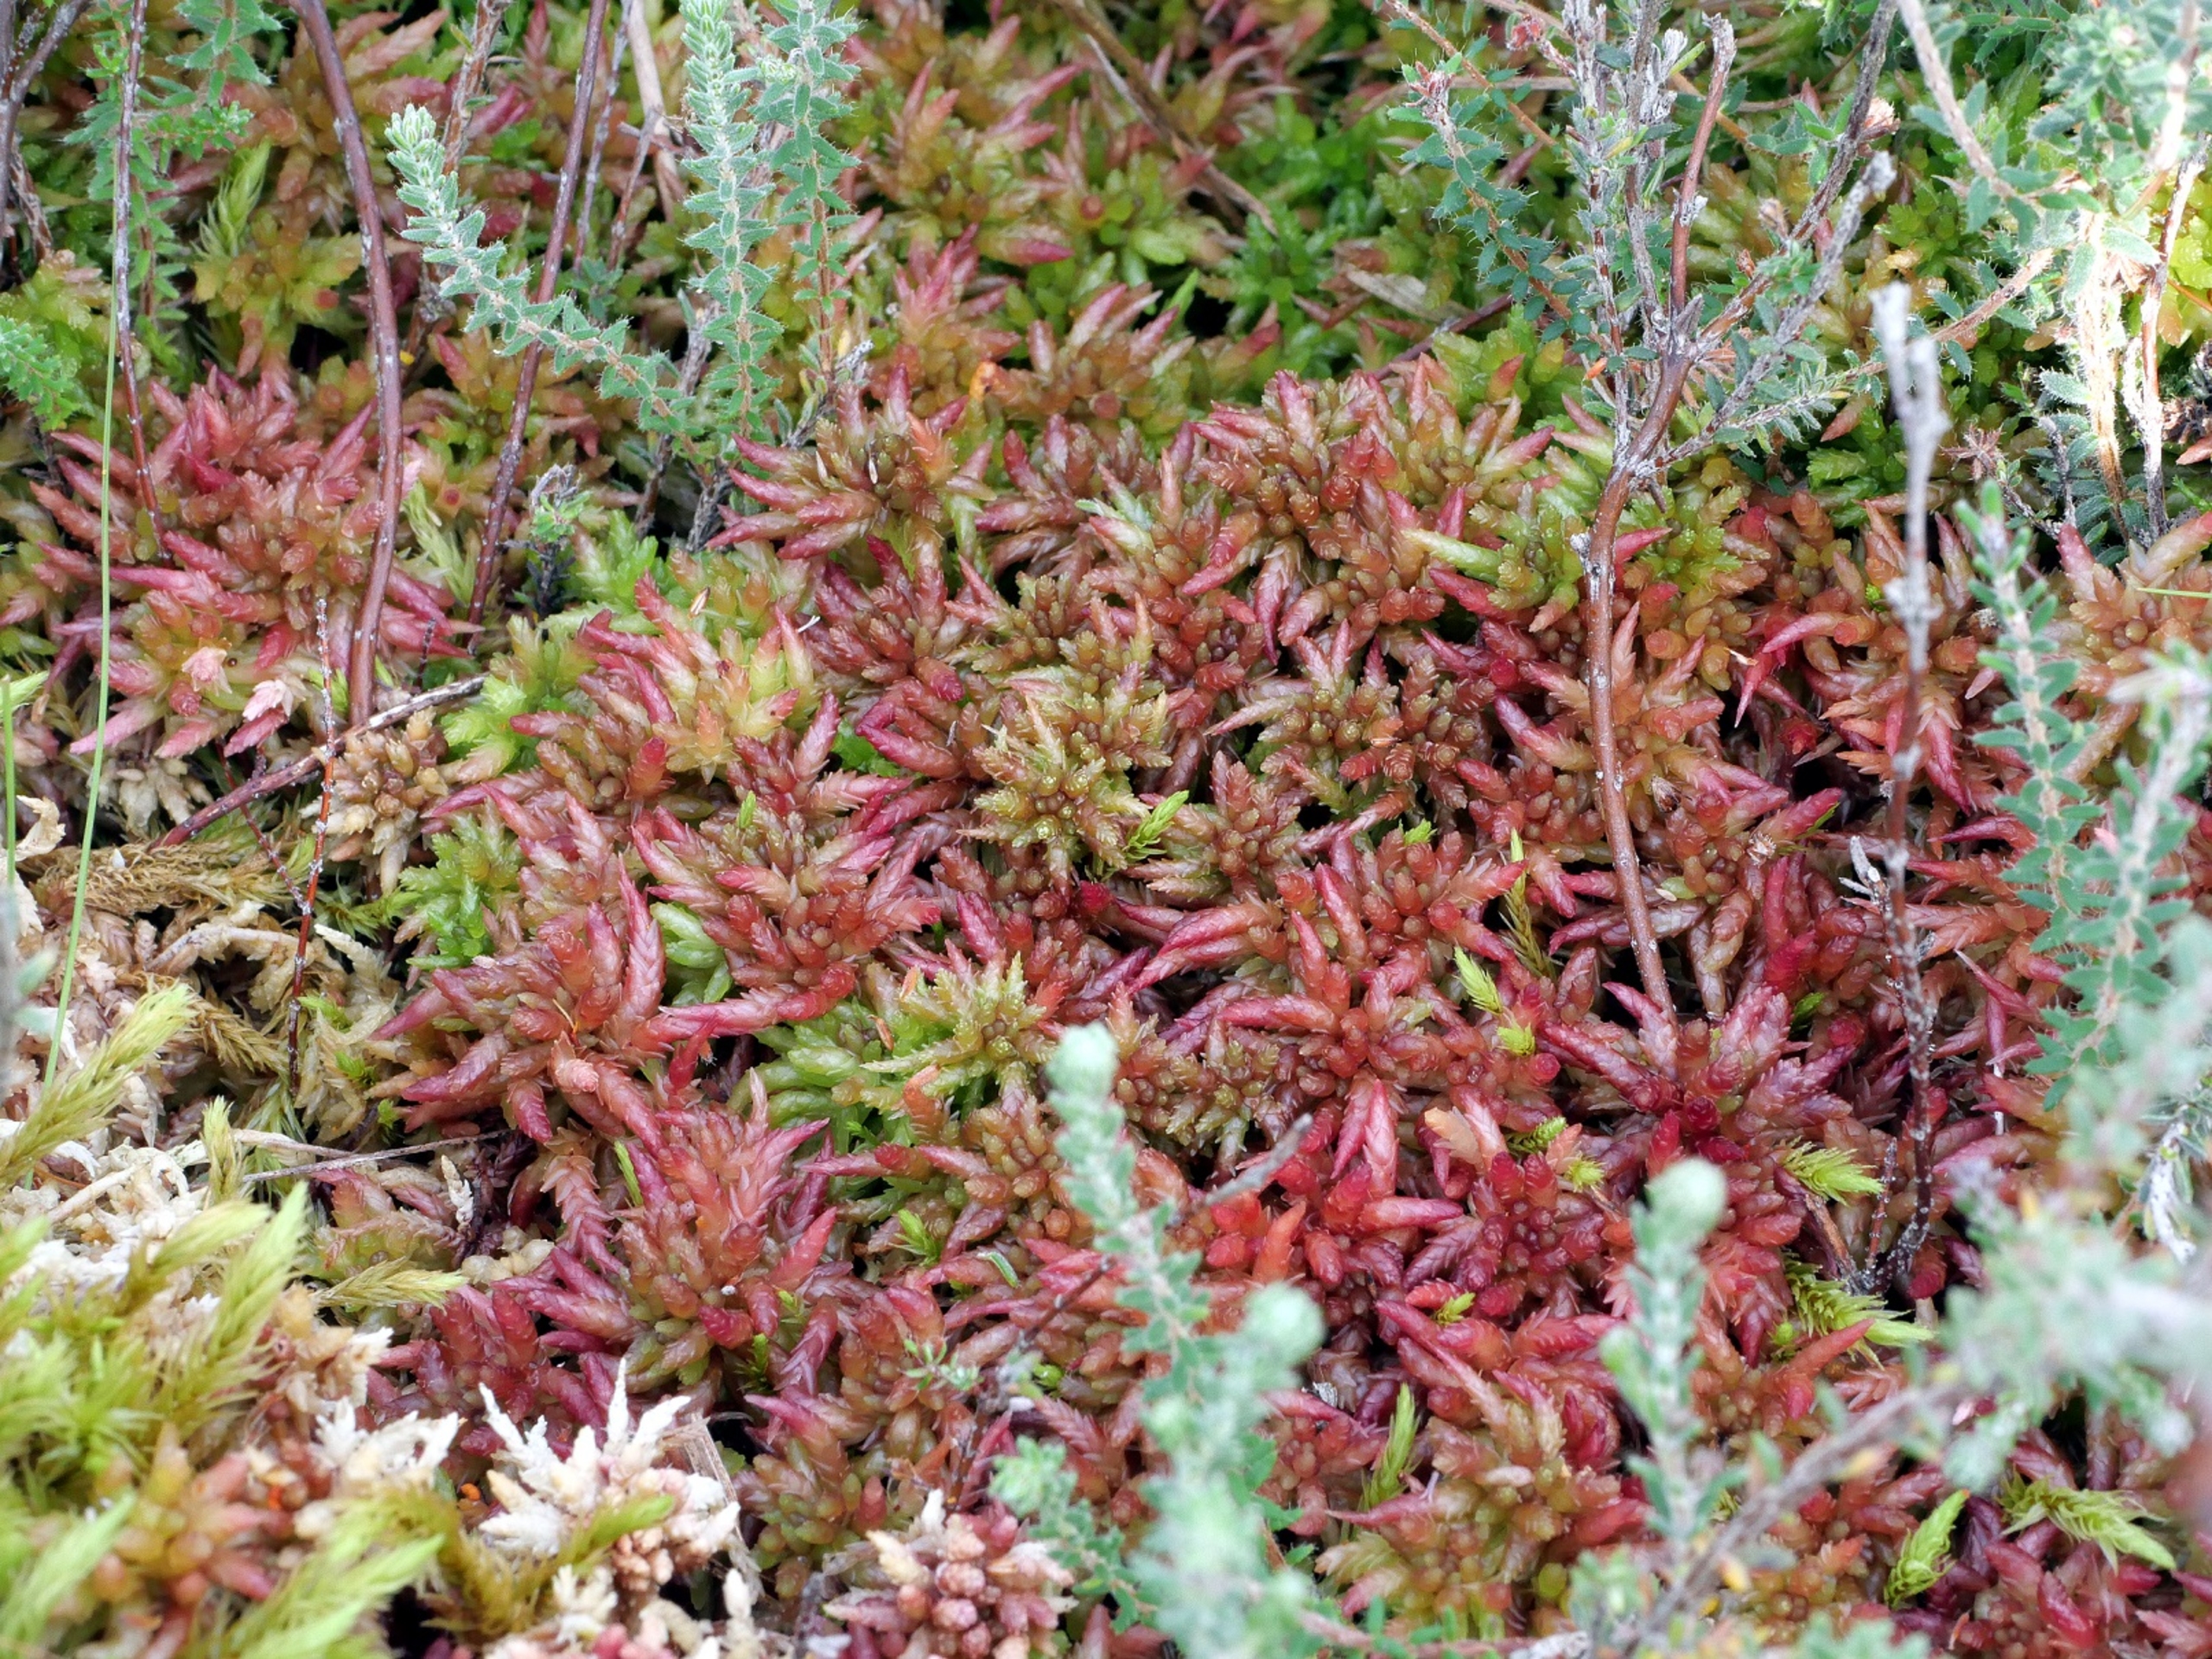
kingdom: Plantae
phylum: Bryophyta
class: Sphagnopsida
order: Sphagnales
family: Sphagnaceae
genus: Sphagnum
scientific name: Sphagnum divinum
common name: Rød tørvemos (delvist)
